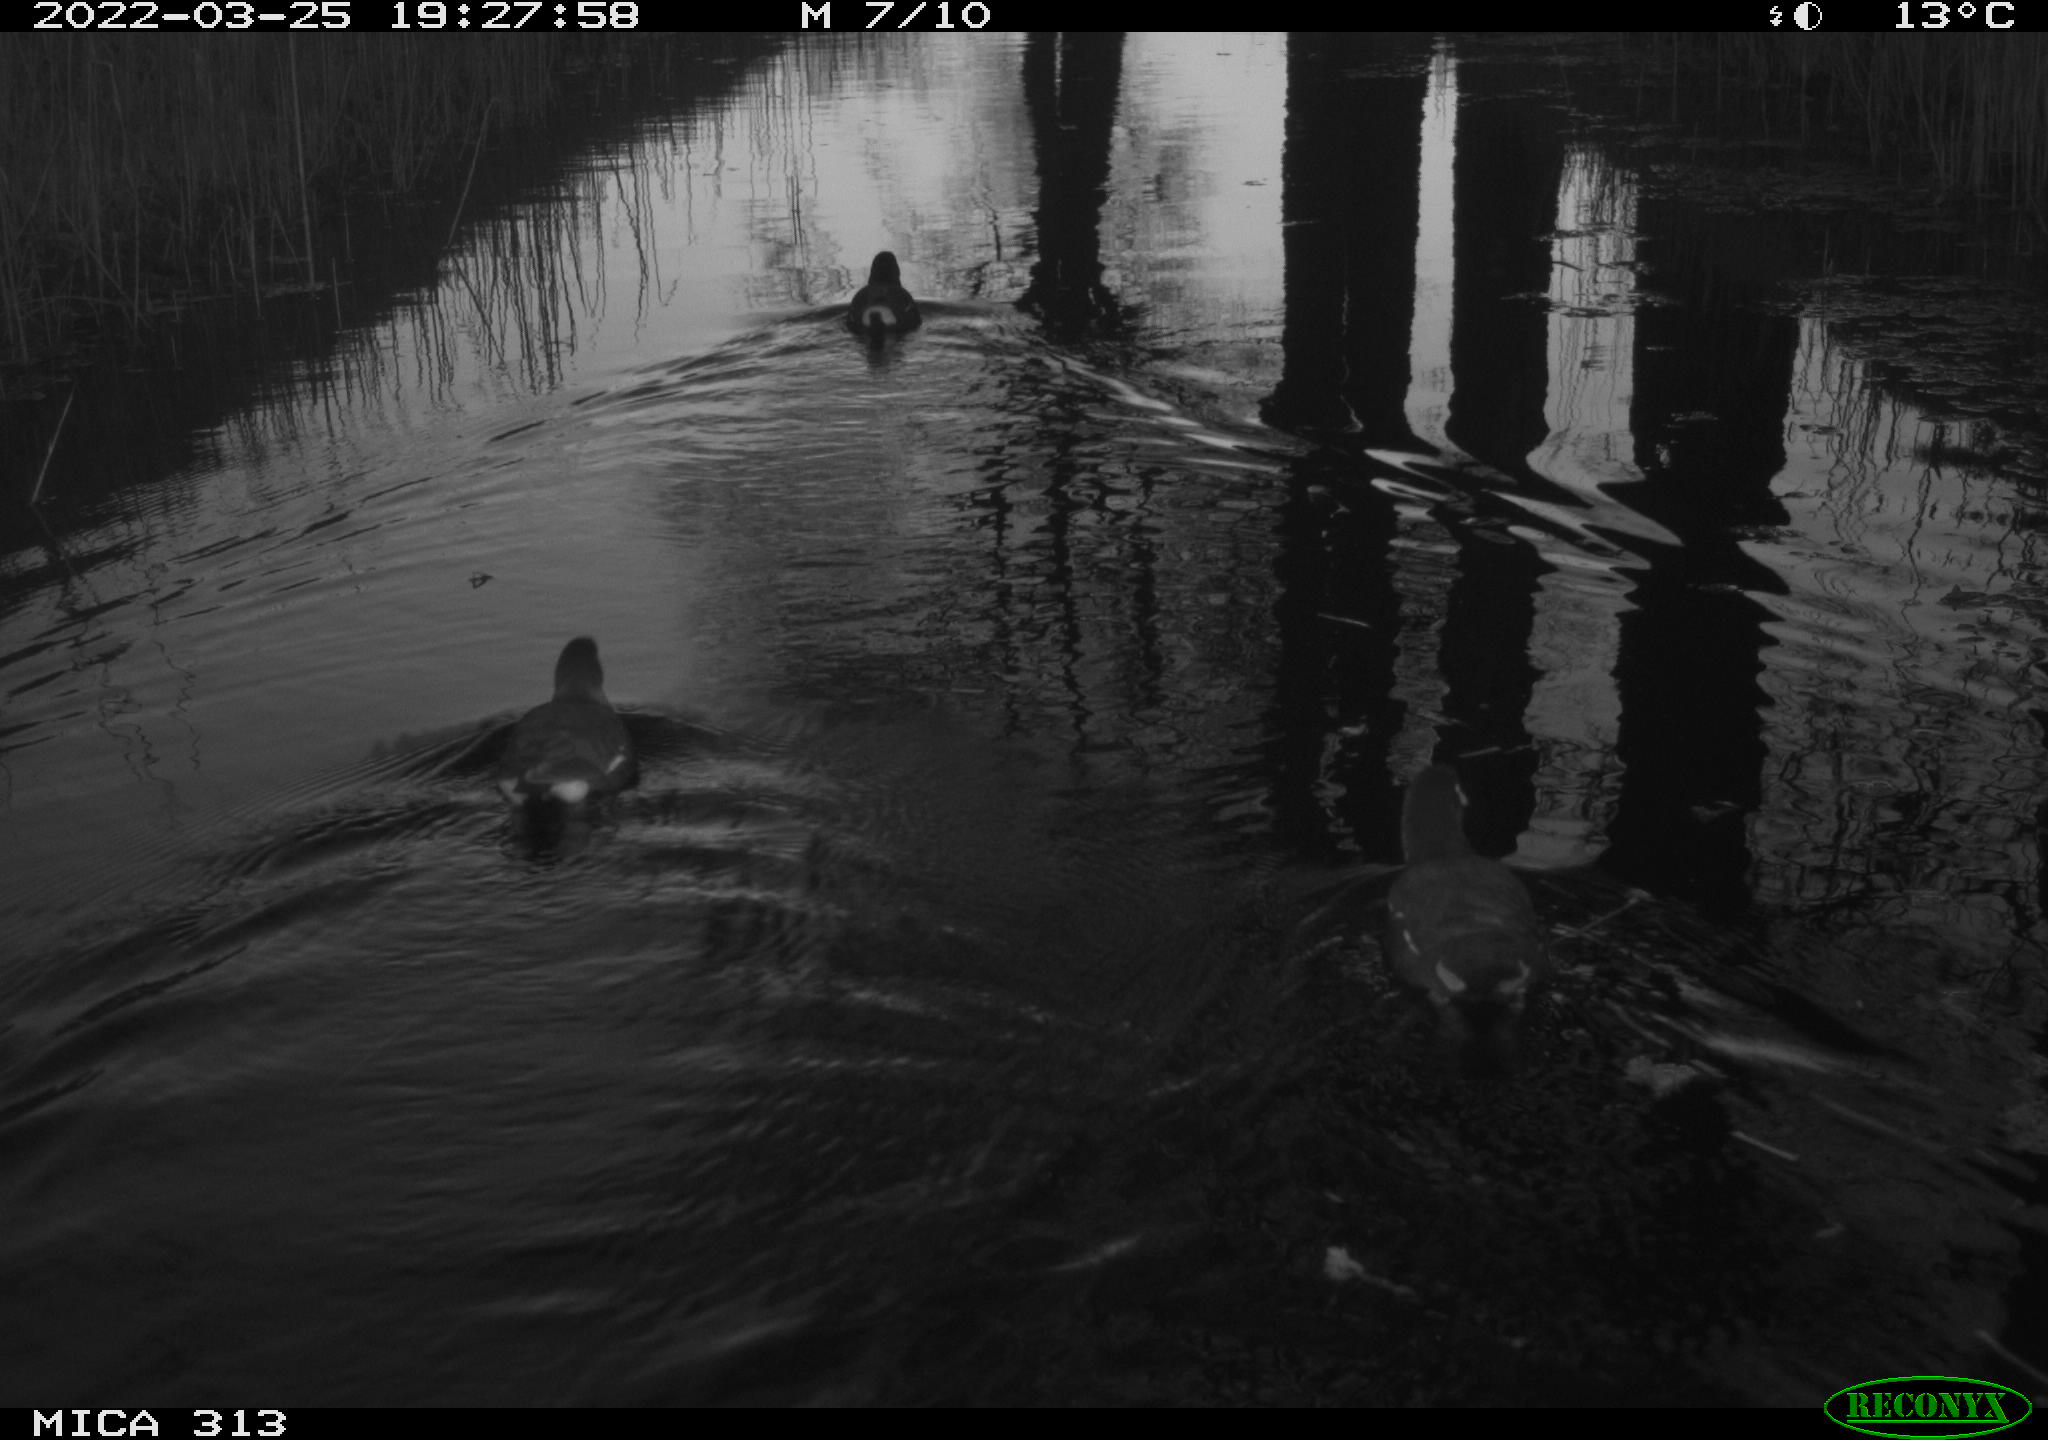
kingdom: Animalia
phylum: Chordata
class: Aves
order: Gruiformes
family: Rallidae
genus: Gallinula
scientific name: Gallinula chloropus
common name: Common moorhen
